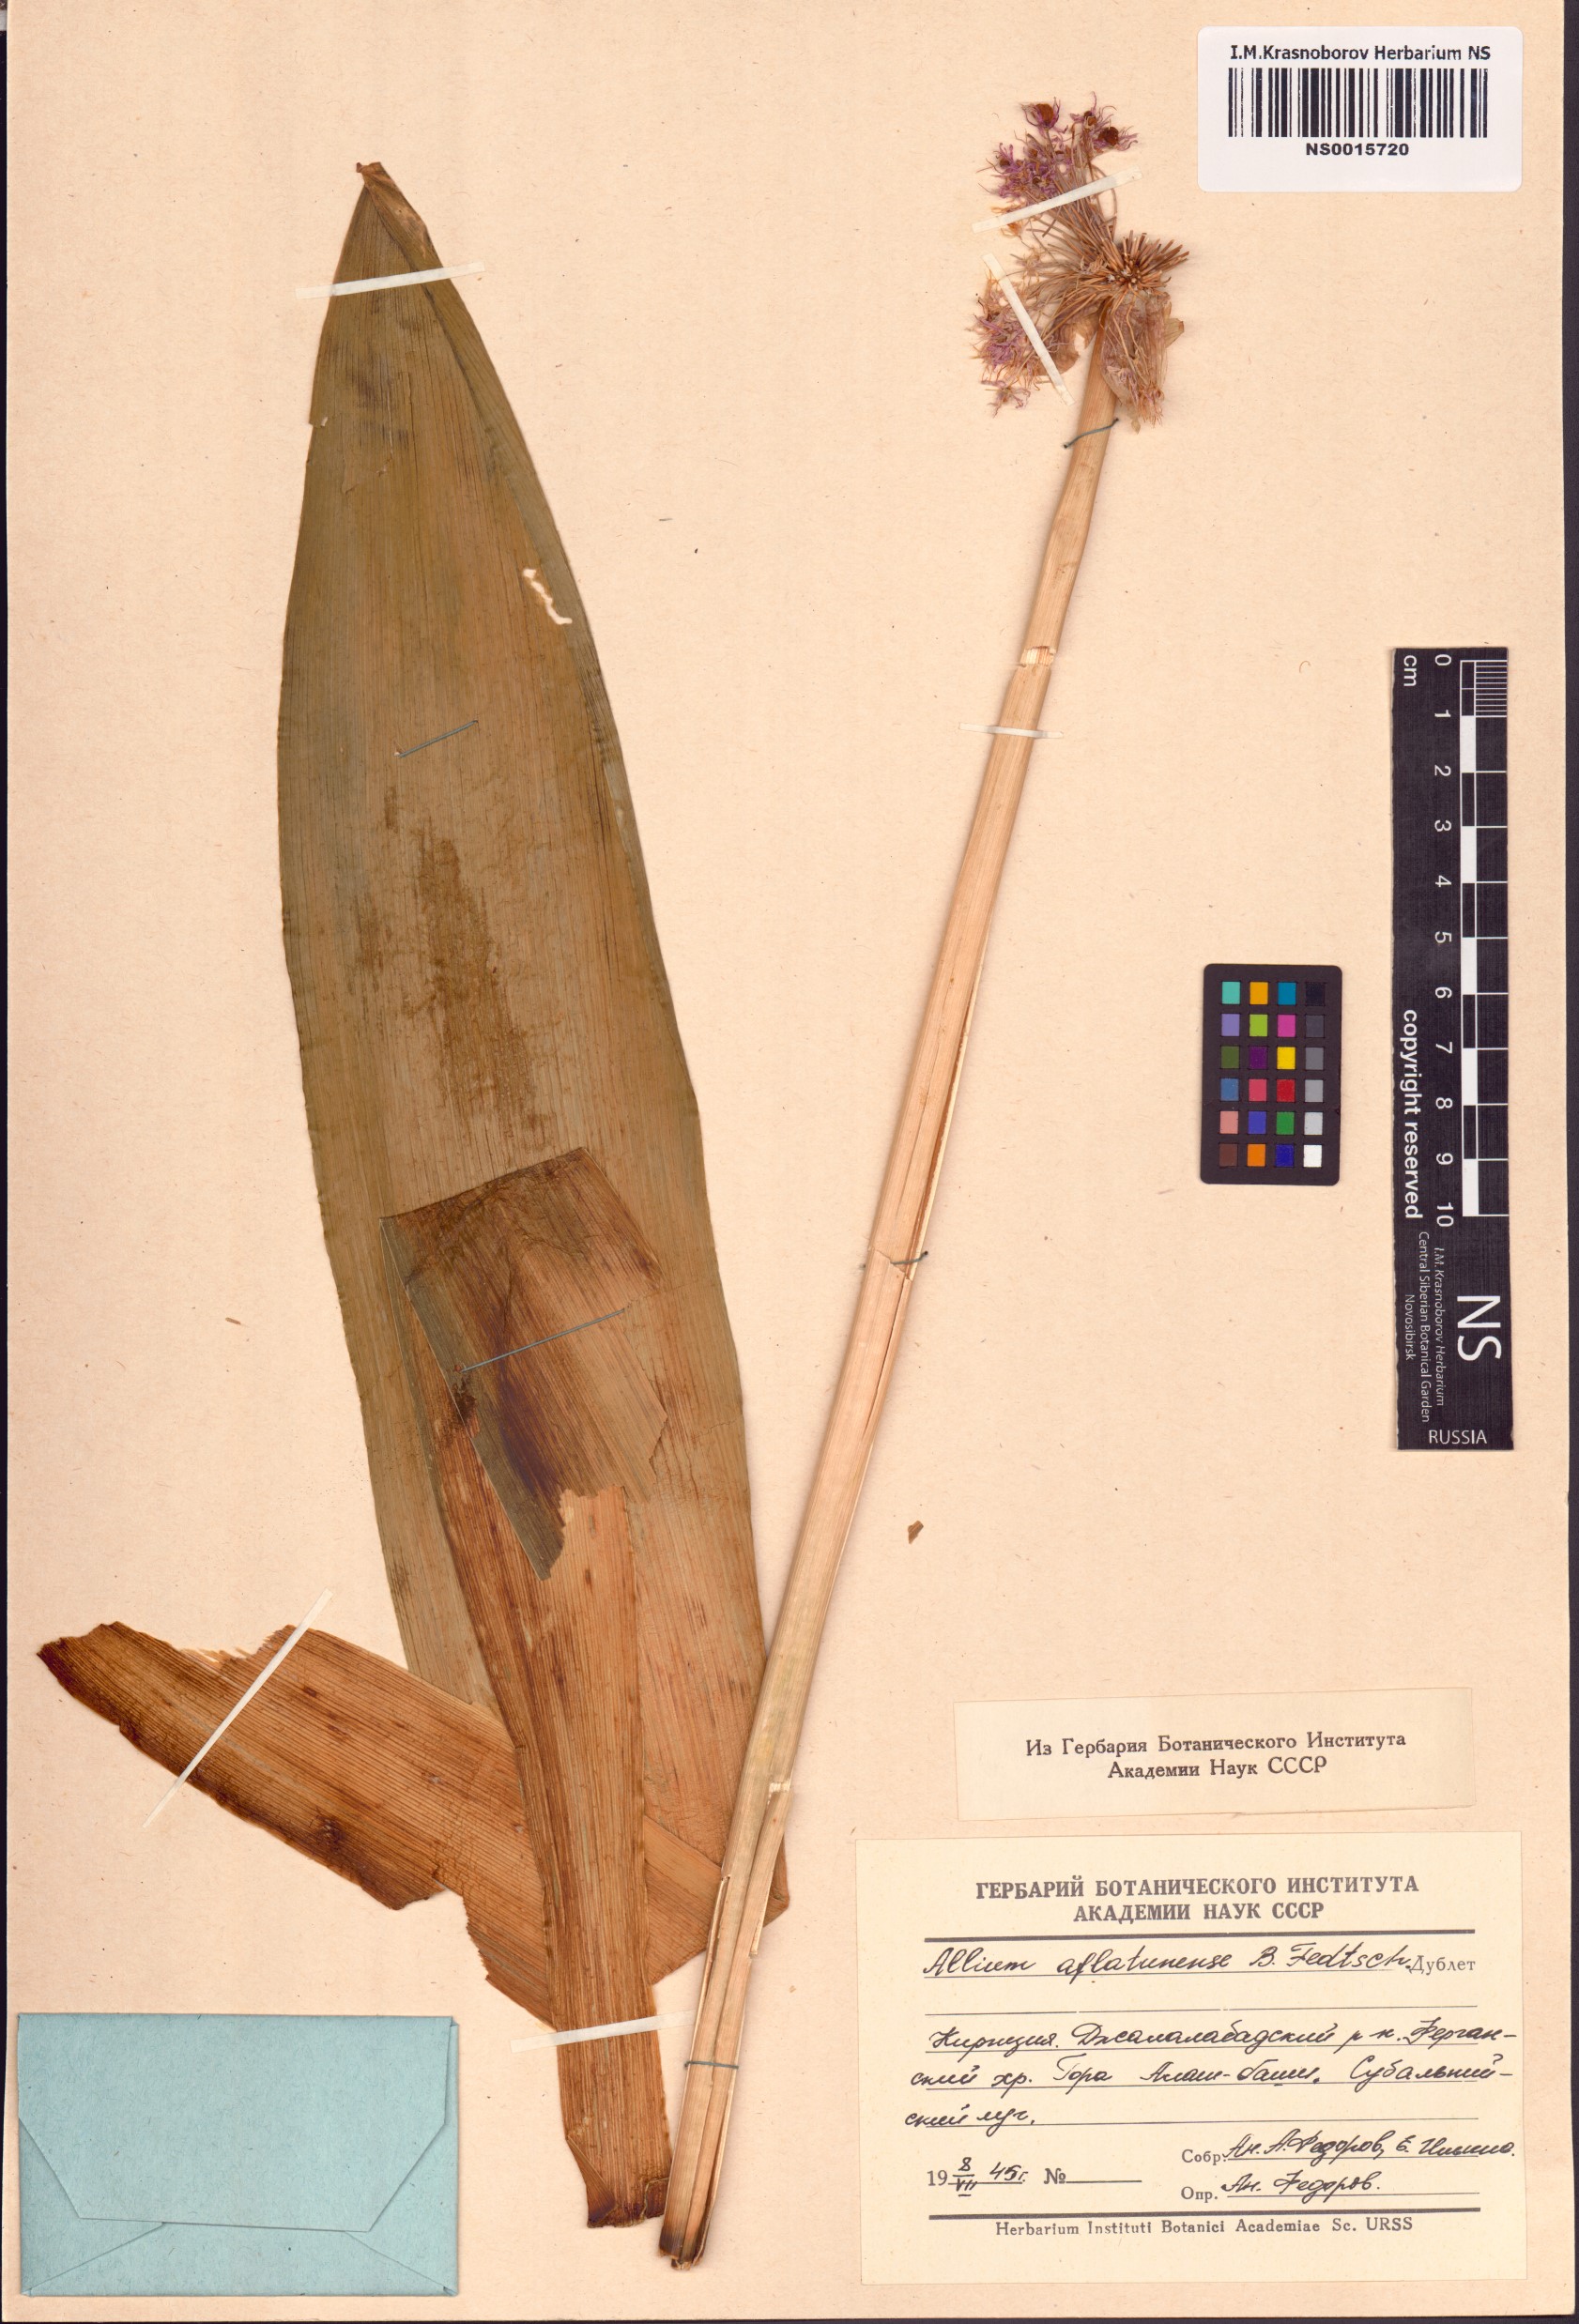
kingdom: Plantae
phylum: Tracheophyta
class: Liliopsida
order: Asparagales
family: Amaryllidaceae
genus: Allium
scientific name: Allium aflatunense
